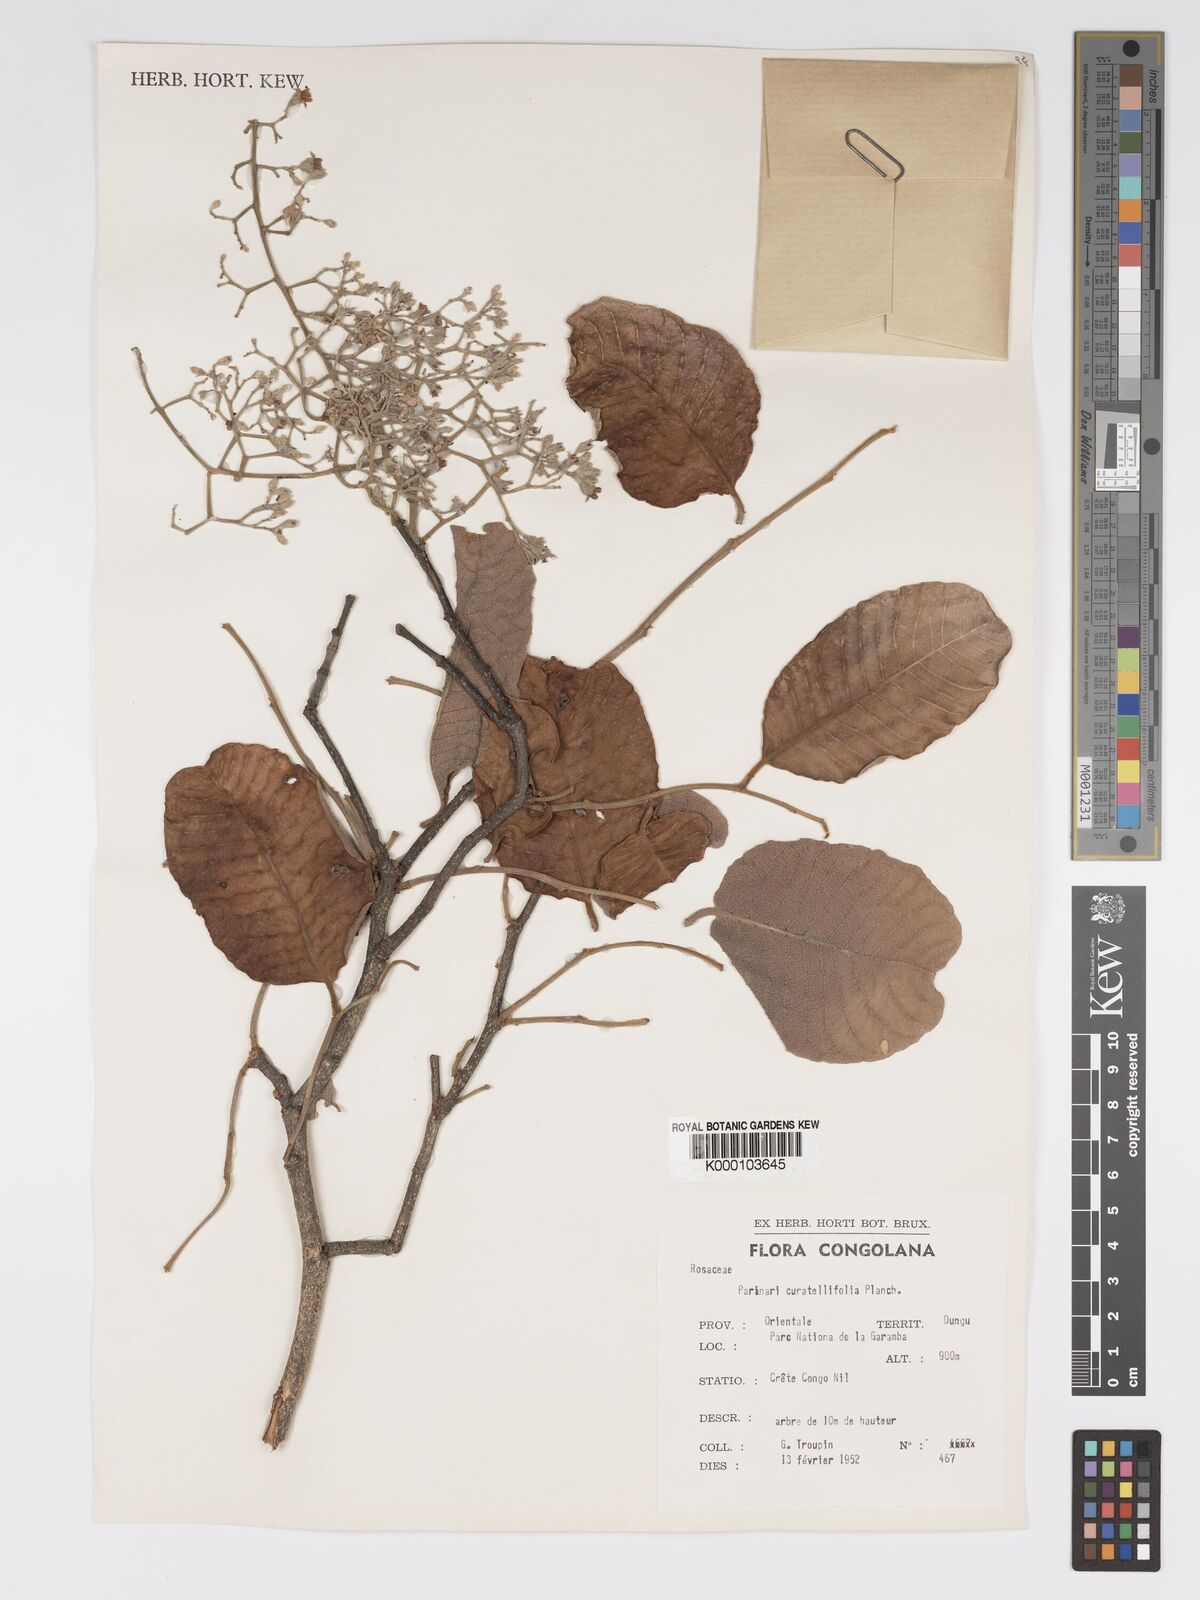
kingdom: Plantae
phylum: Tracheophyta
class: Magnoliopsida
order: Malpighiales
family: Chrysobalanaceae
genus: Parinari
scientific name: Parinari curatellifolia
